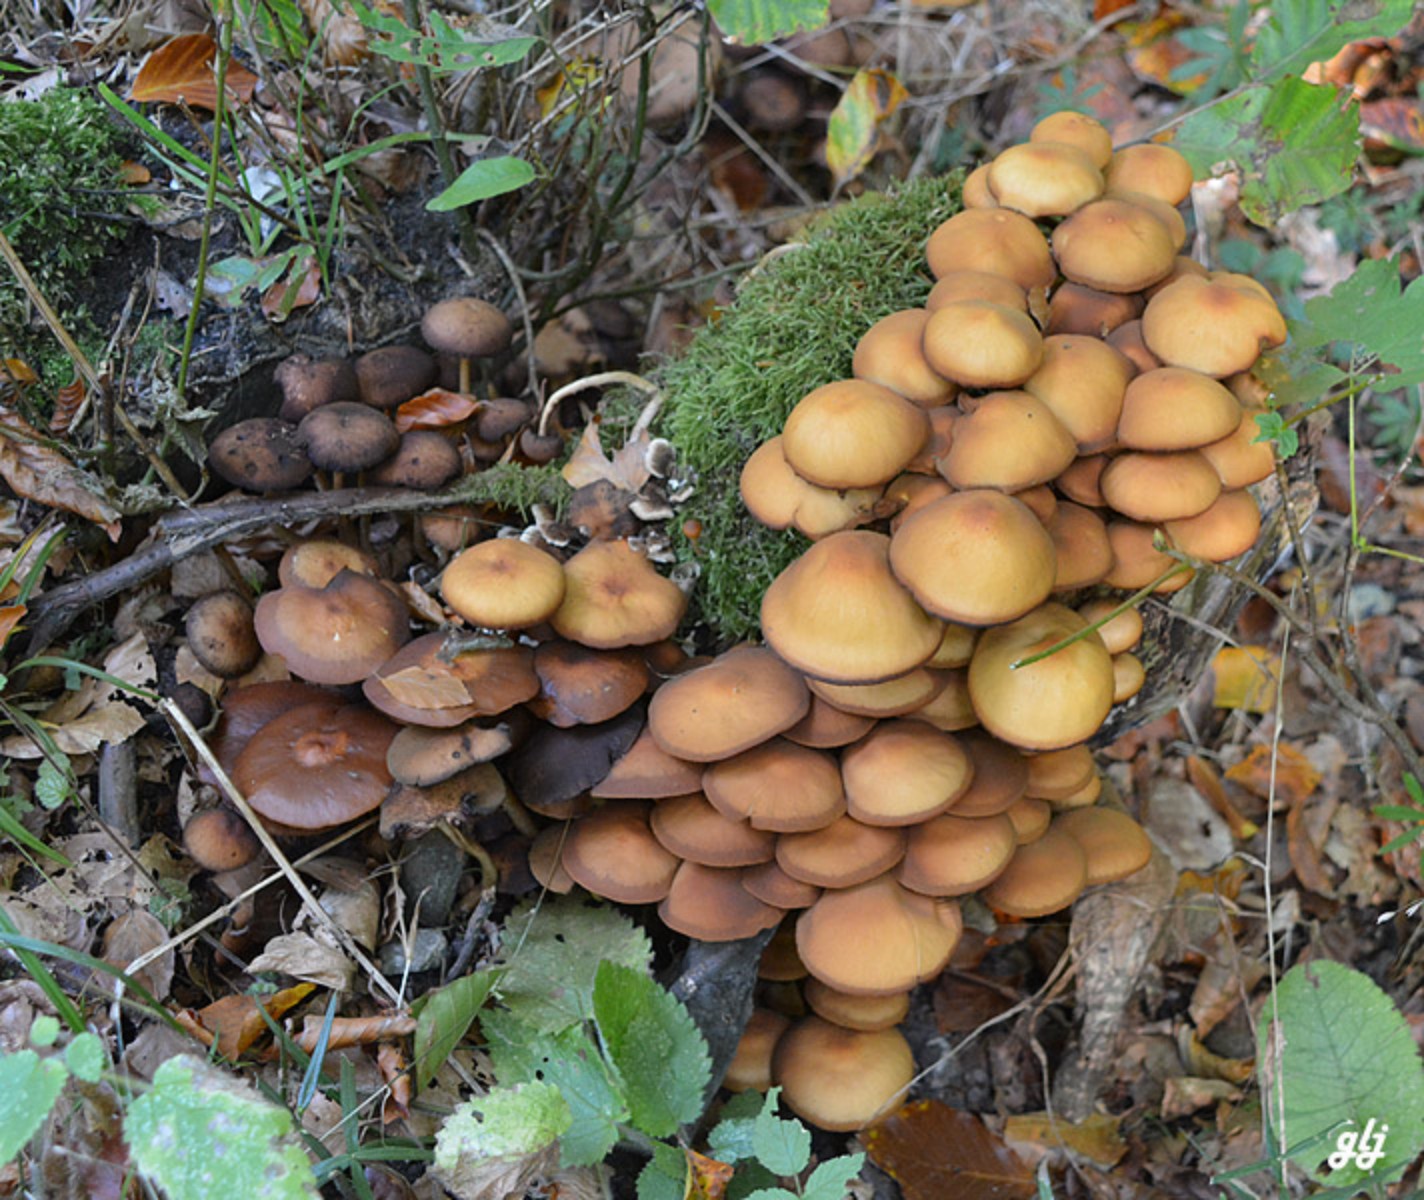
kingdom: Fungi
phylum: Basidiomycota
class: Agaricomycetes
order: Agaricales
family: Strophariaceae
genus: Kuehneromyces
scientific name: Kuehneromyces mutabilis
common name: foranderlig skælhat
